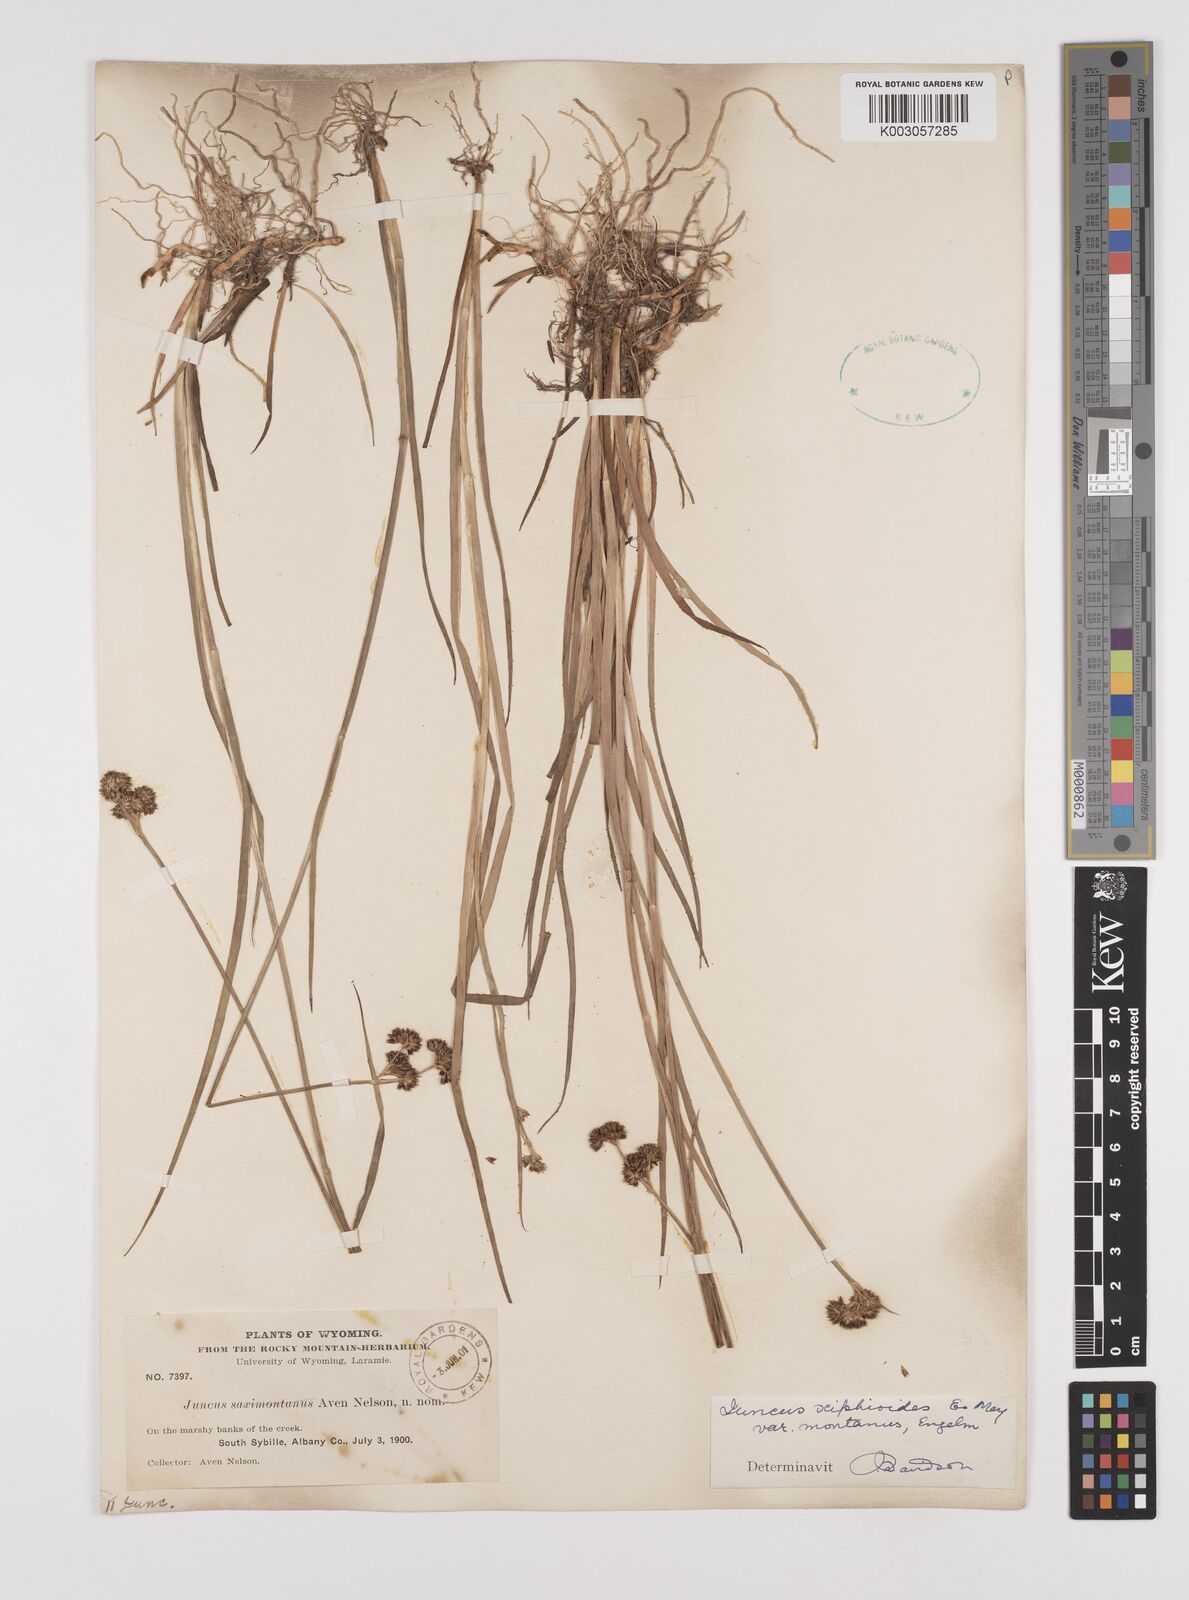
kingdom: Plantae
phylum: Tracheophyta
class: Liliopsida
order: Poales
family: Juncaceae
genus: Juncus
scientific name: Juncus saximontanus
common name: Rocky mountain rush
